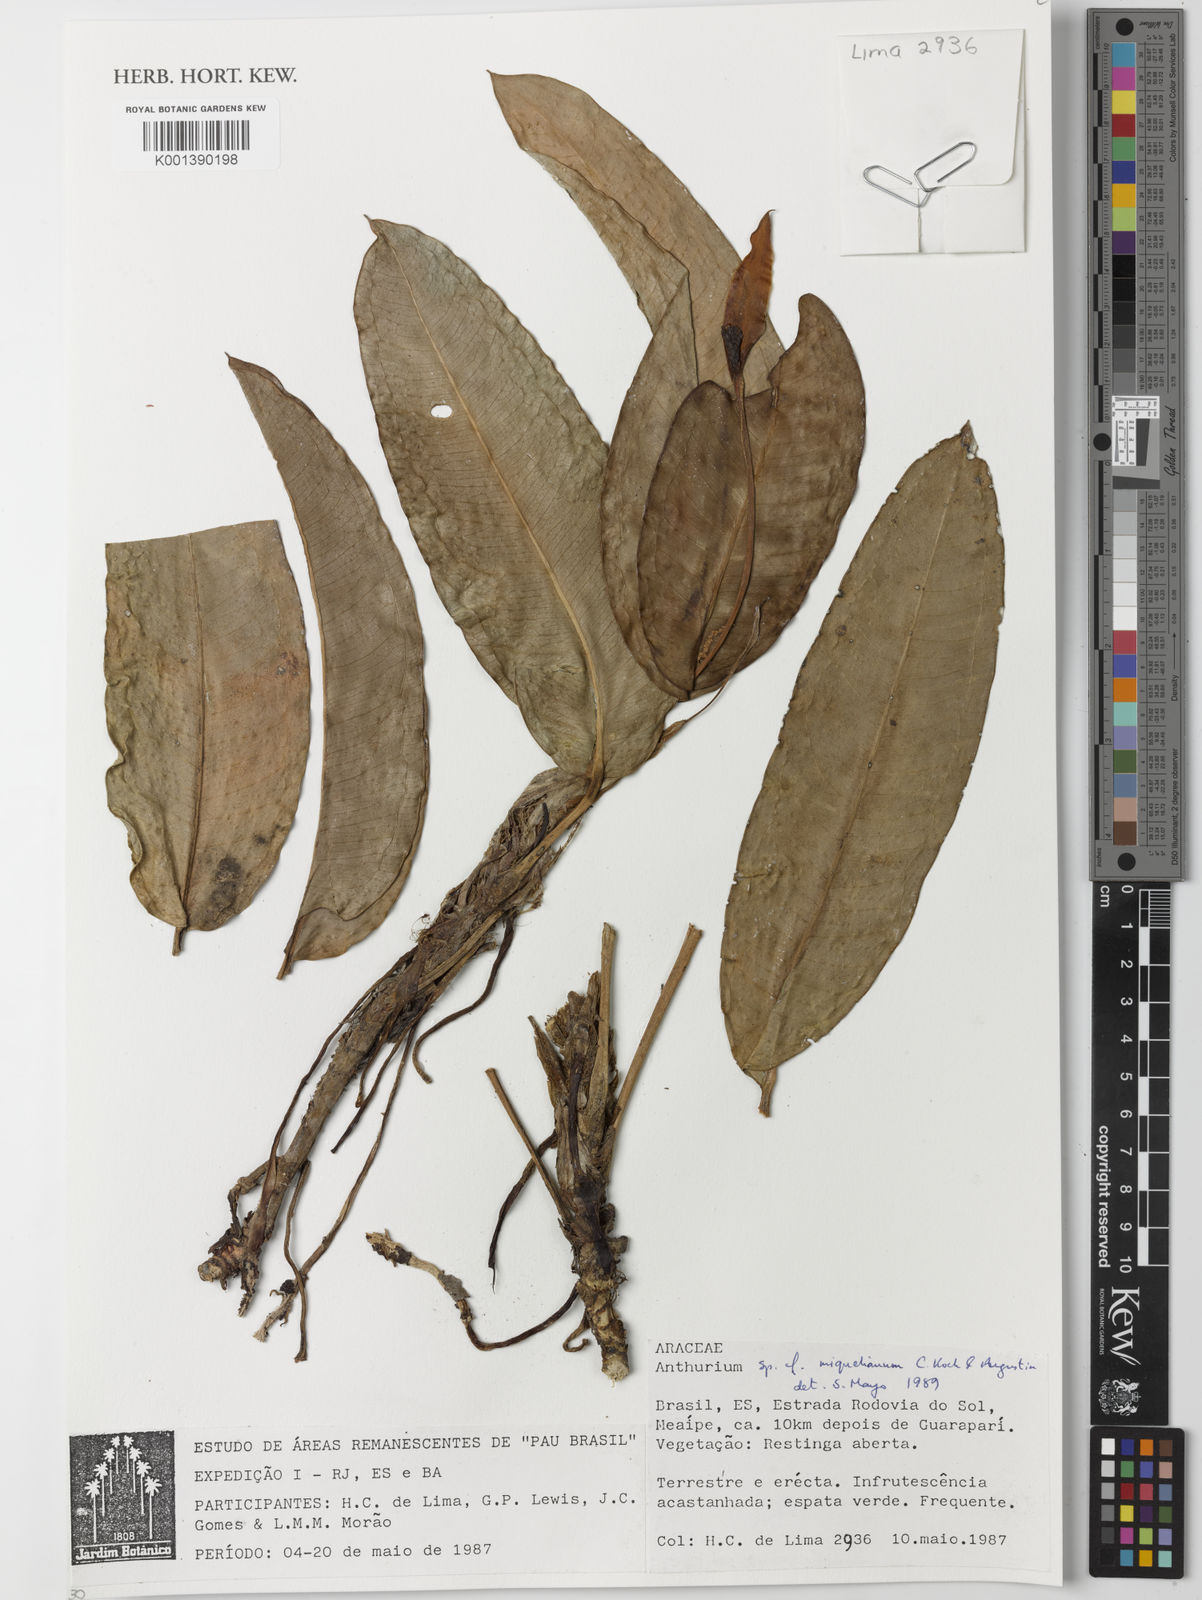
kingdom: Plantae
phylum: Tracheophyta
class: Liliopsida
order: Alismatales
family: Araceae
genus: Anthurium
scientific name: Anthurium parasiticum
